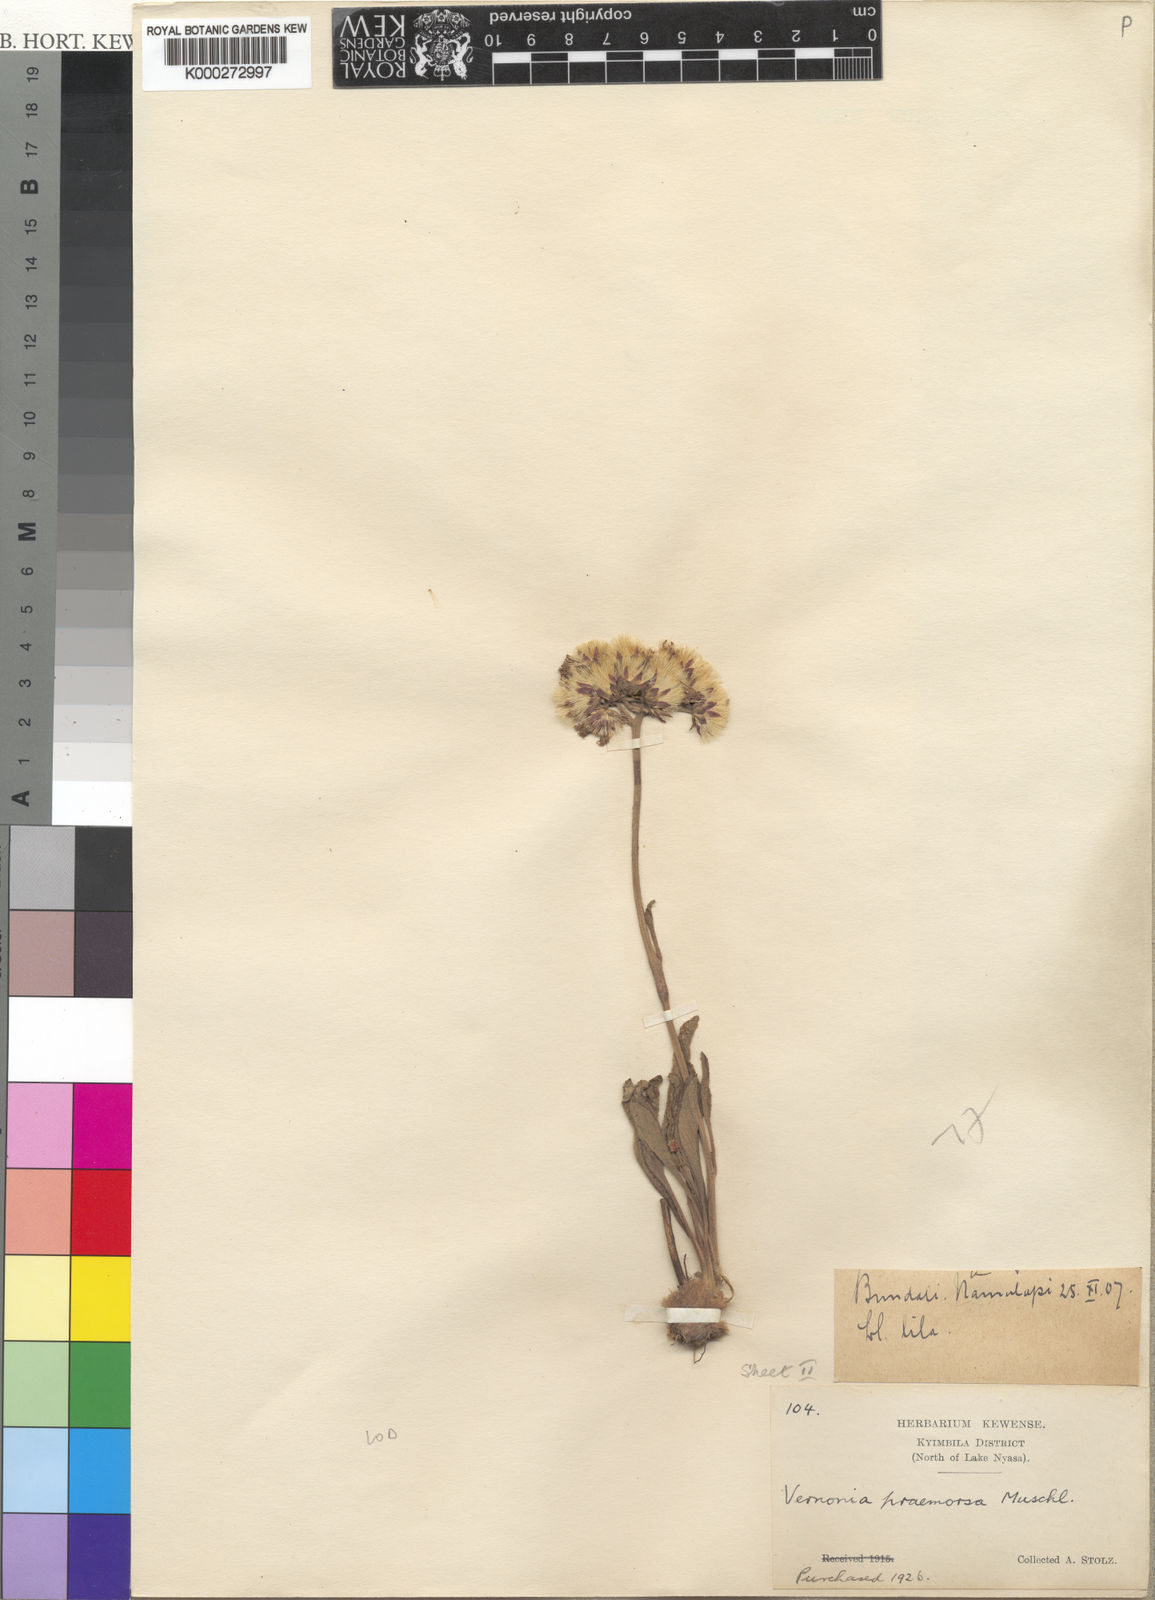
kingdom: Plantae
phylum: Tracheophyta
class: Magnoliopsida
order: Asterales
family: Asteraceae
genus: Vernonella
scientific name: Vernonella praemorsa
